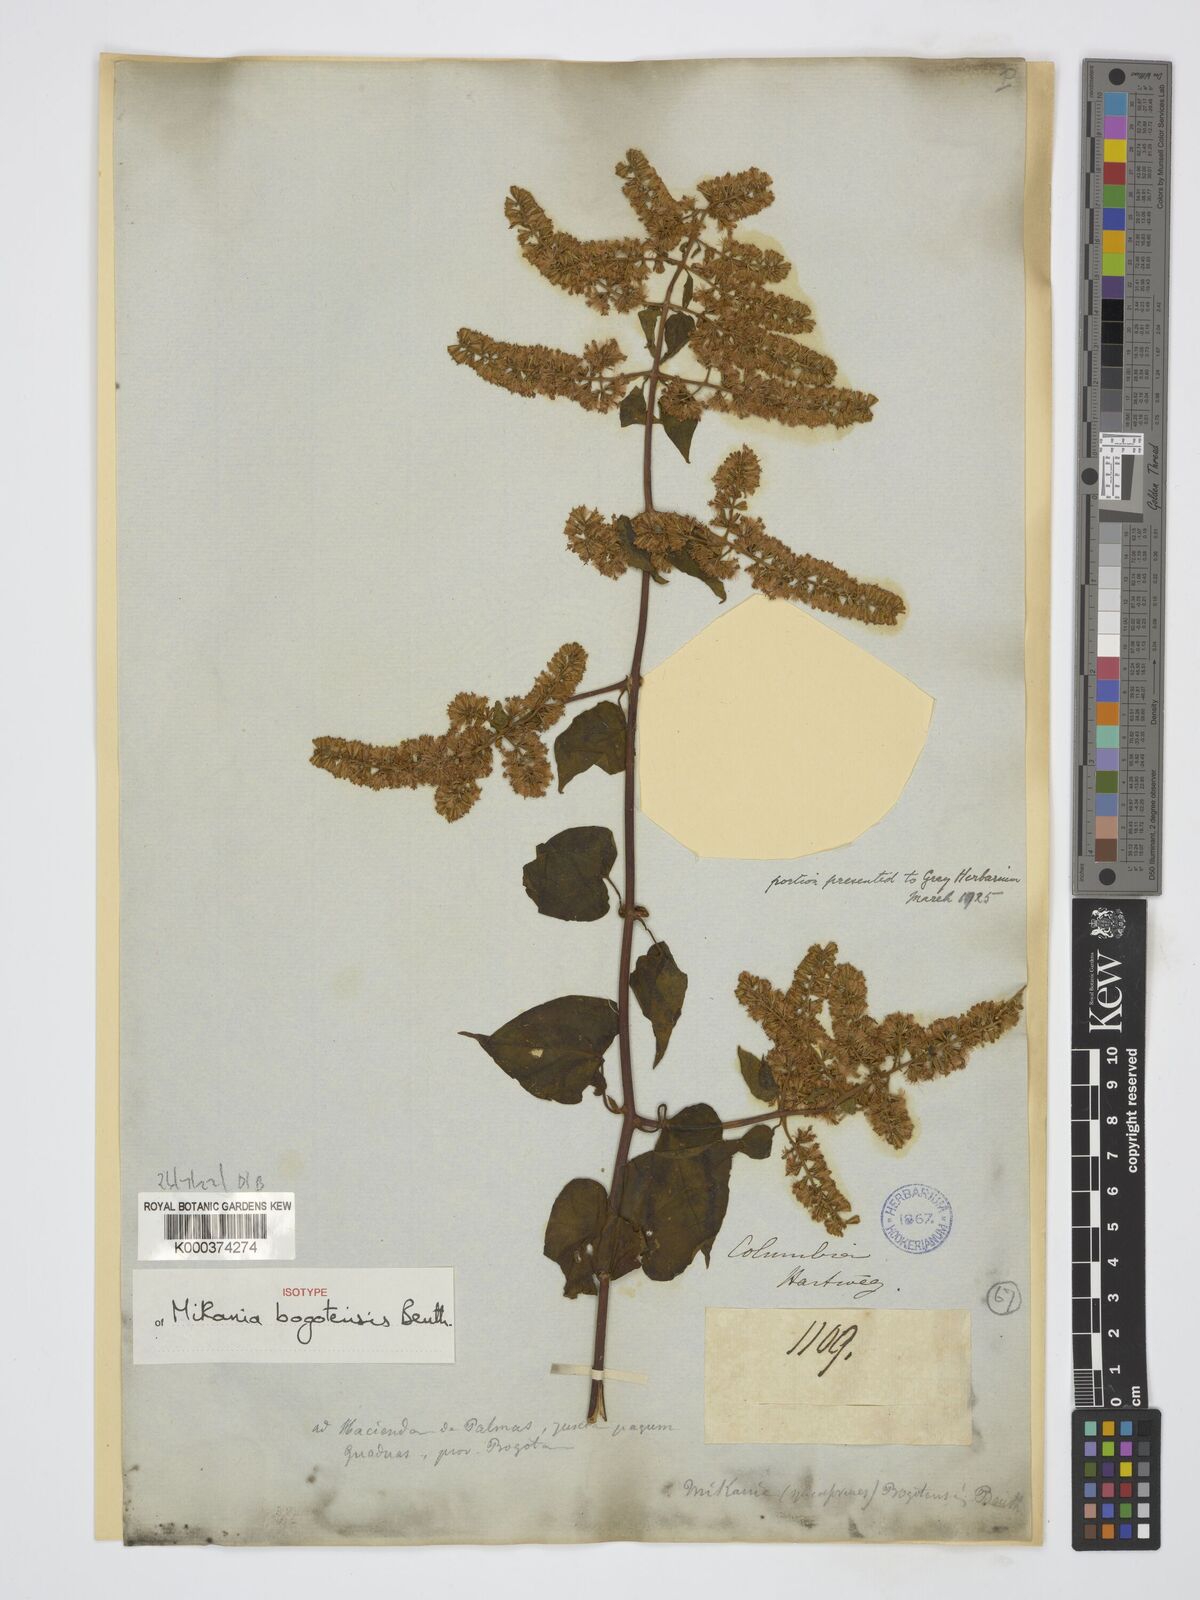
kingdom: Plantae
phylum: Tracheophyta
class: Magnoliopsida
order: Asterales
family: Asteraceae
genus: Mikania
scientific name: Mikania bogotensis
